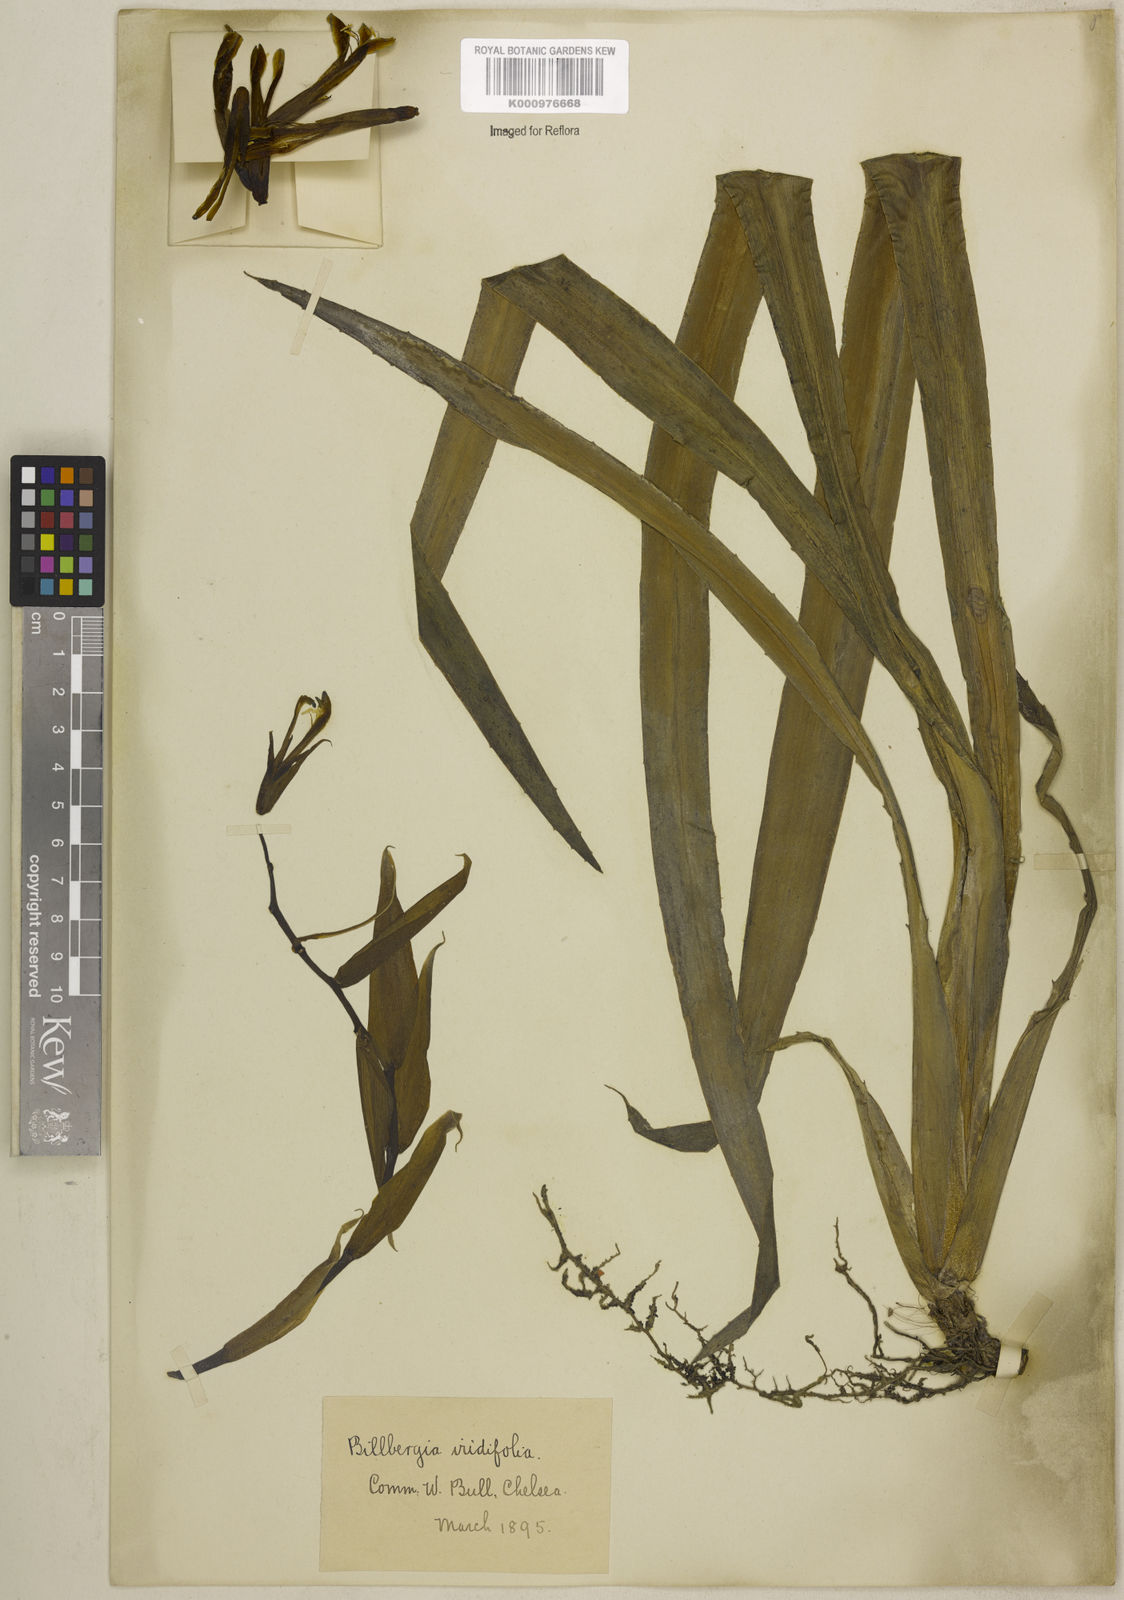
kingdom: Plantae
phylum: Tracheophyta
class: Liliopsida
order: Poales
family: Bromeliaceae
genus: Billbergia
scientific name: Billbergia iridifolia
